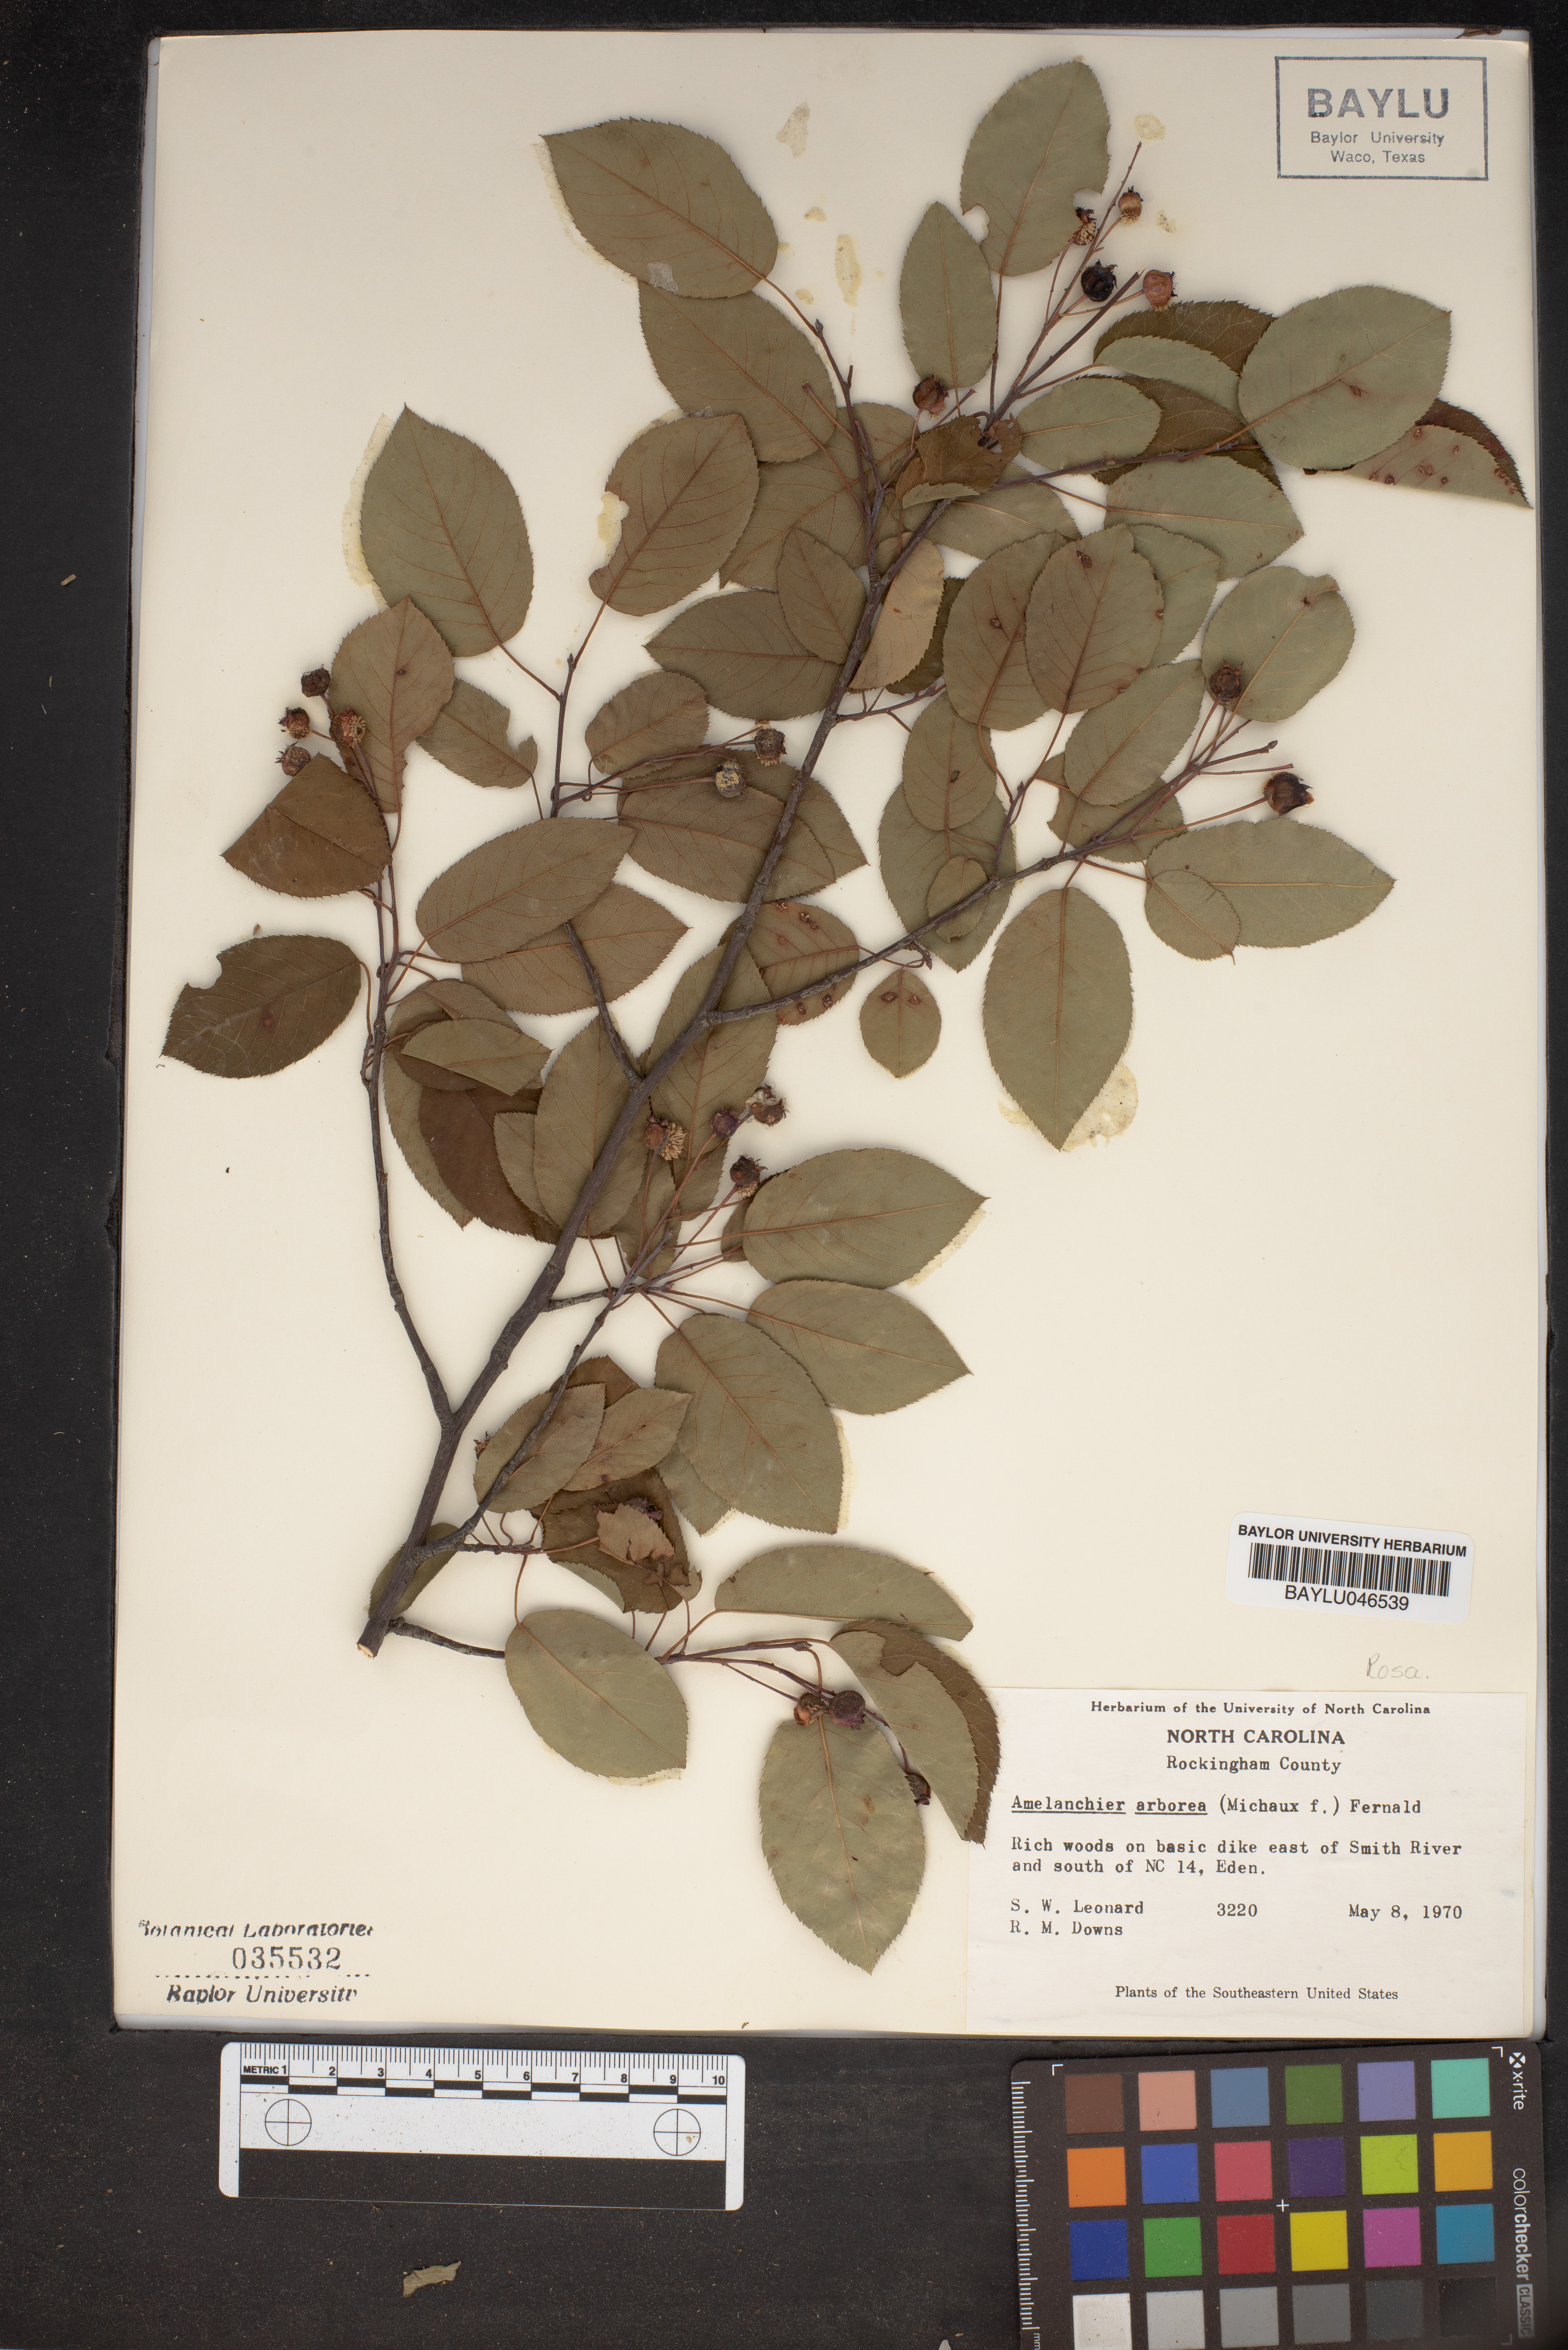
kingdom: Plantae
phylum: Tracheophyta
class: Magnoliopsida
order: Rosales
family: Rosaceae
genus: Amelanchier
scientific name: Amelanchier arborea
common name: Downy serviceberry
